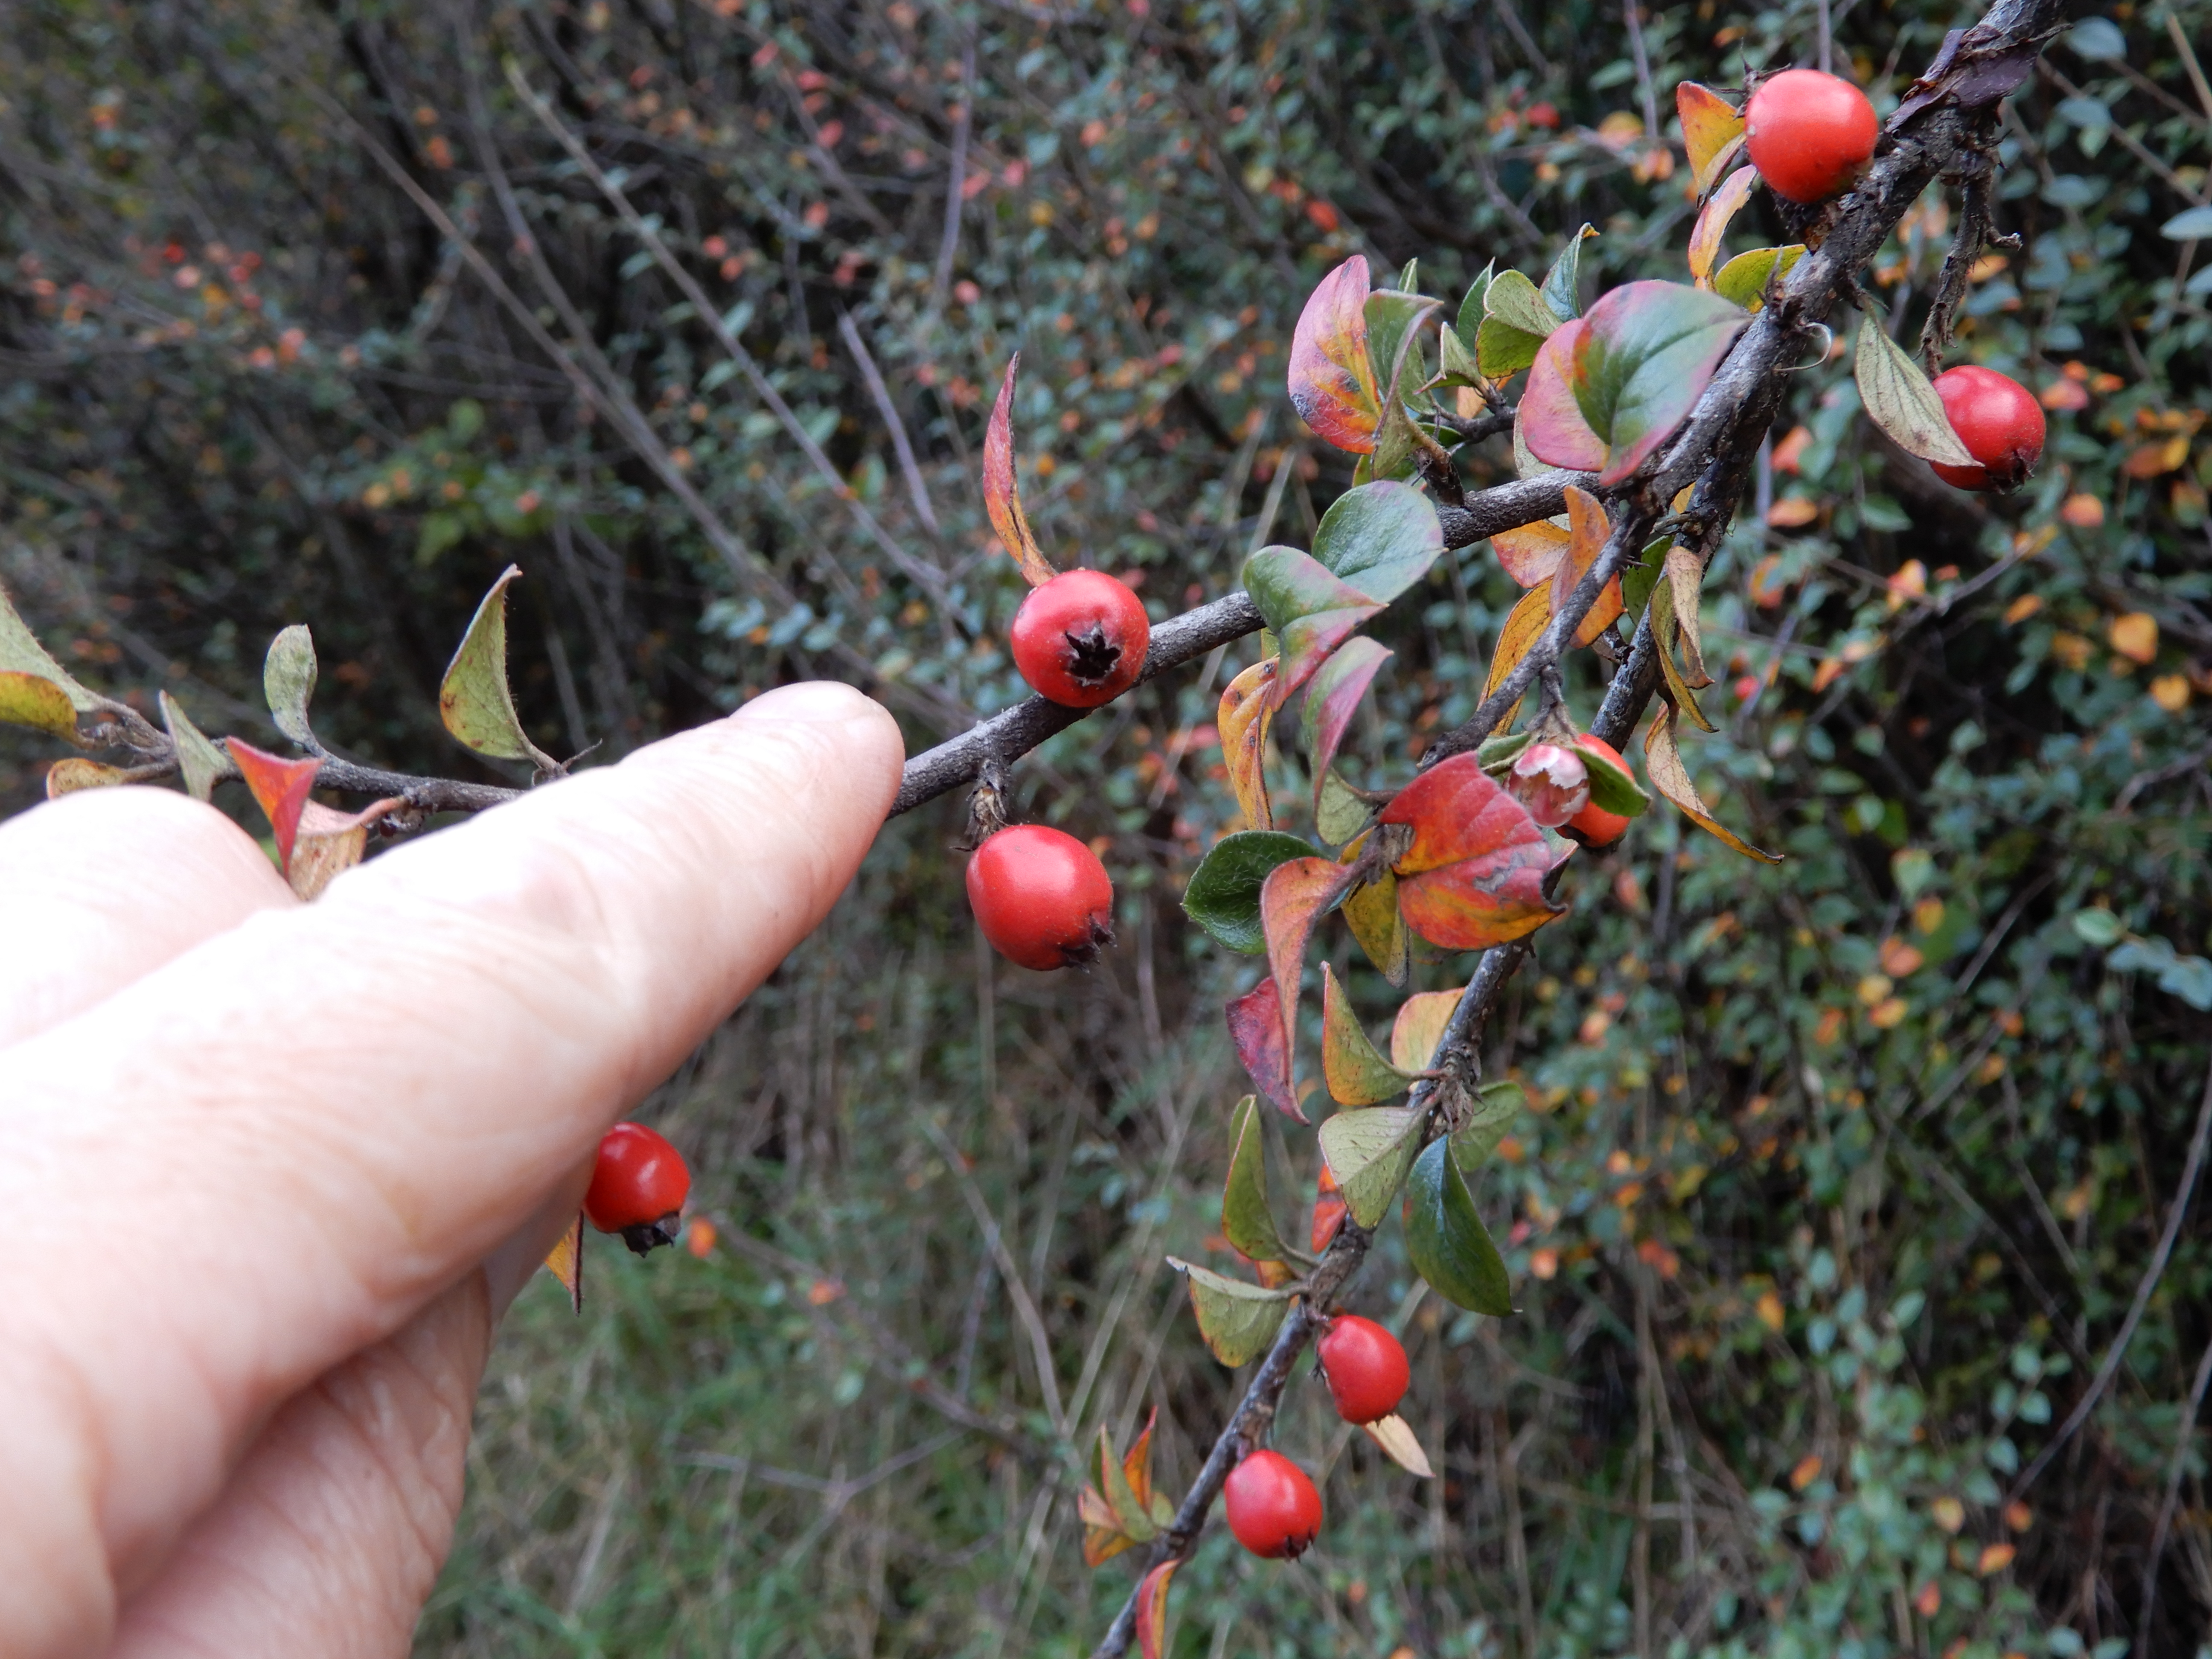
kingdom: Plantae
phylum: Tracheophyta
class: Magnoliopsida
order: Rosales
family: Rosaceae
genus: Cotoneaster
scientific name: Cotoneaster
